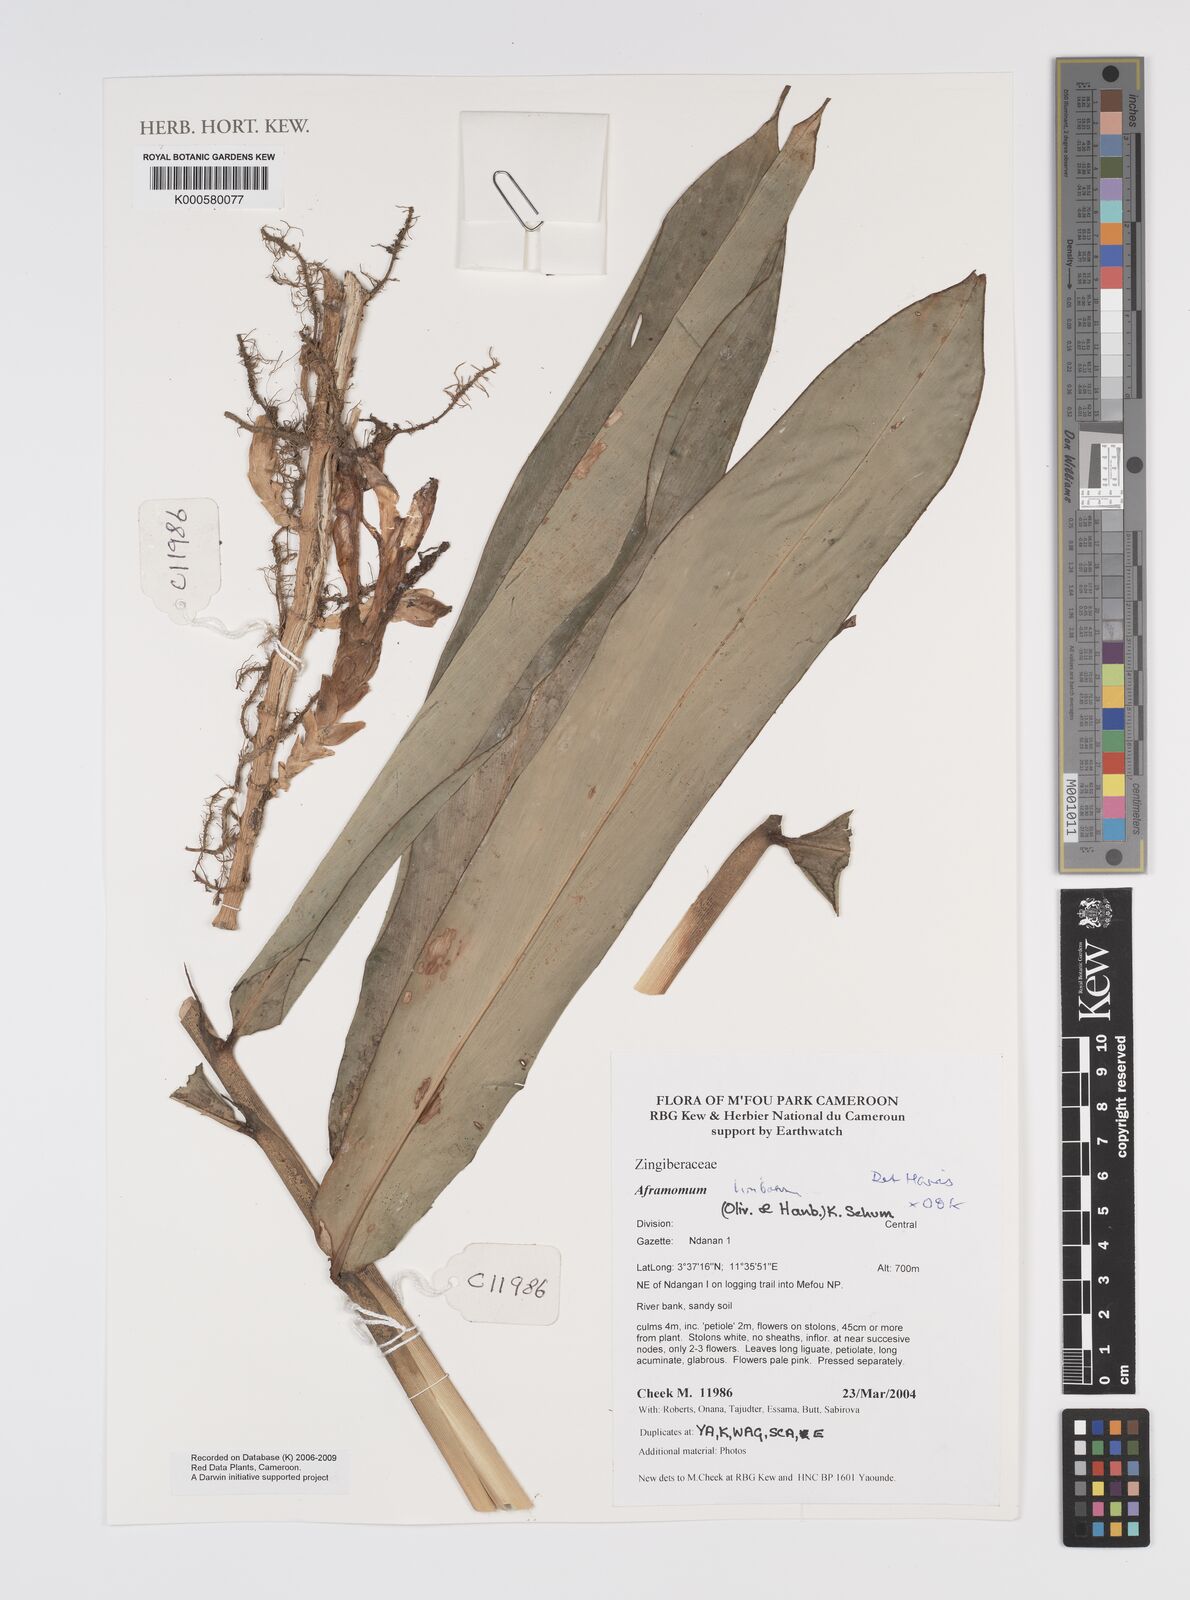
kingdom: Plantae
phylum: Tracheophyta
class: Liliopsida
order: Zingiberales
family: Zingiberaceae
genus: Aframomum
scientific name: Aframomum limbatum
